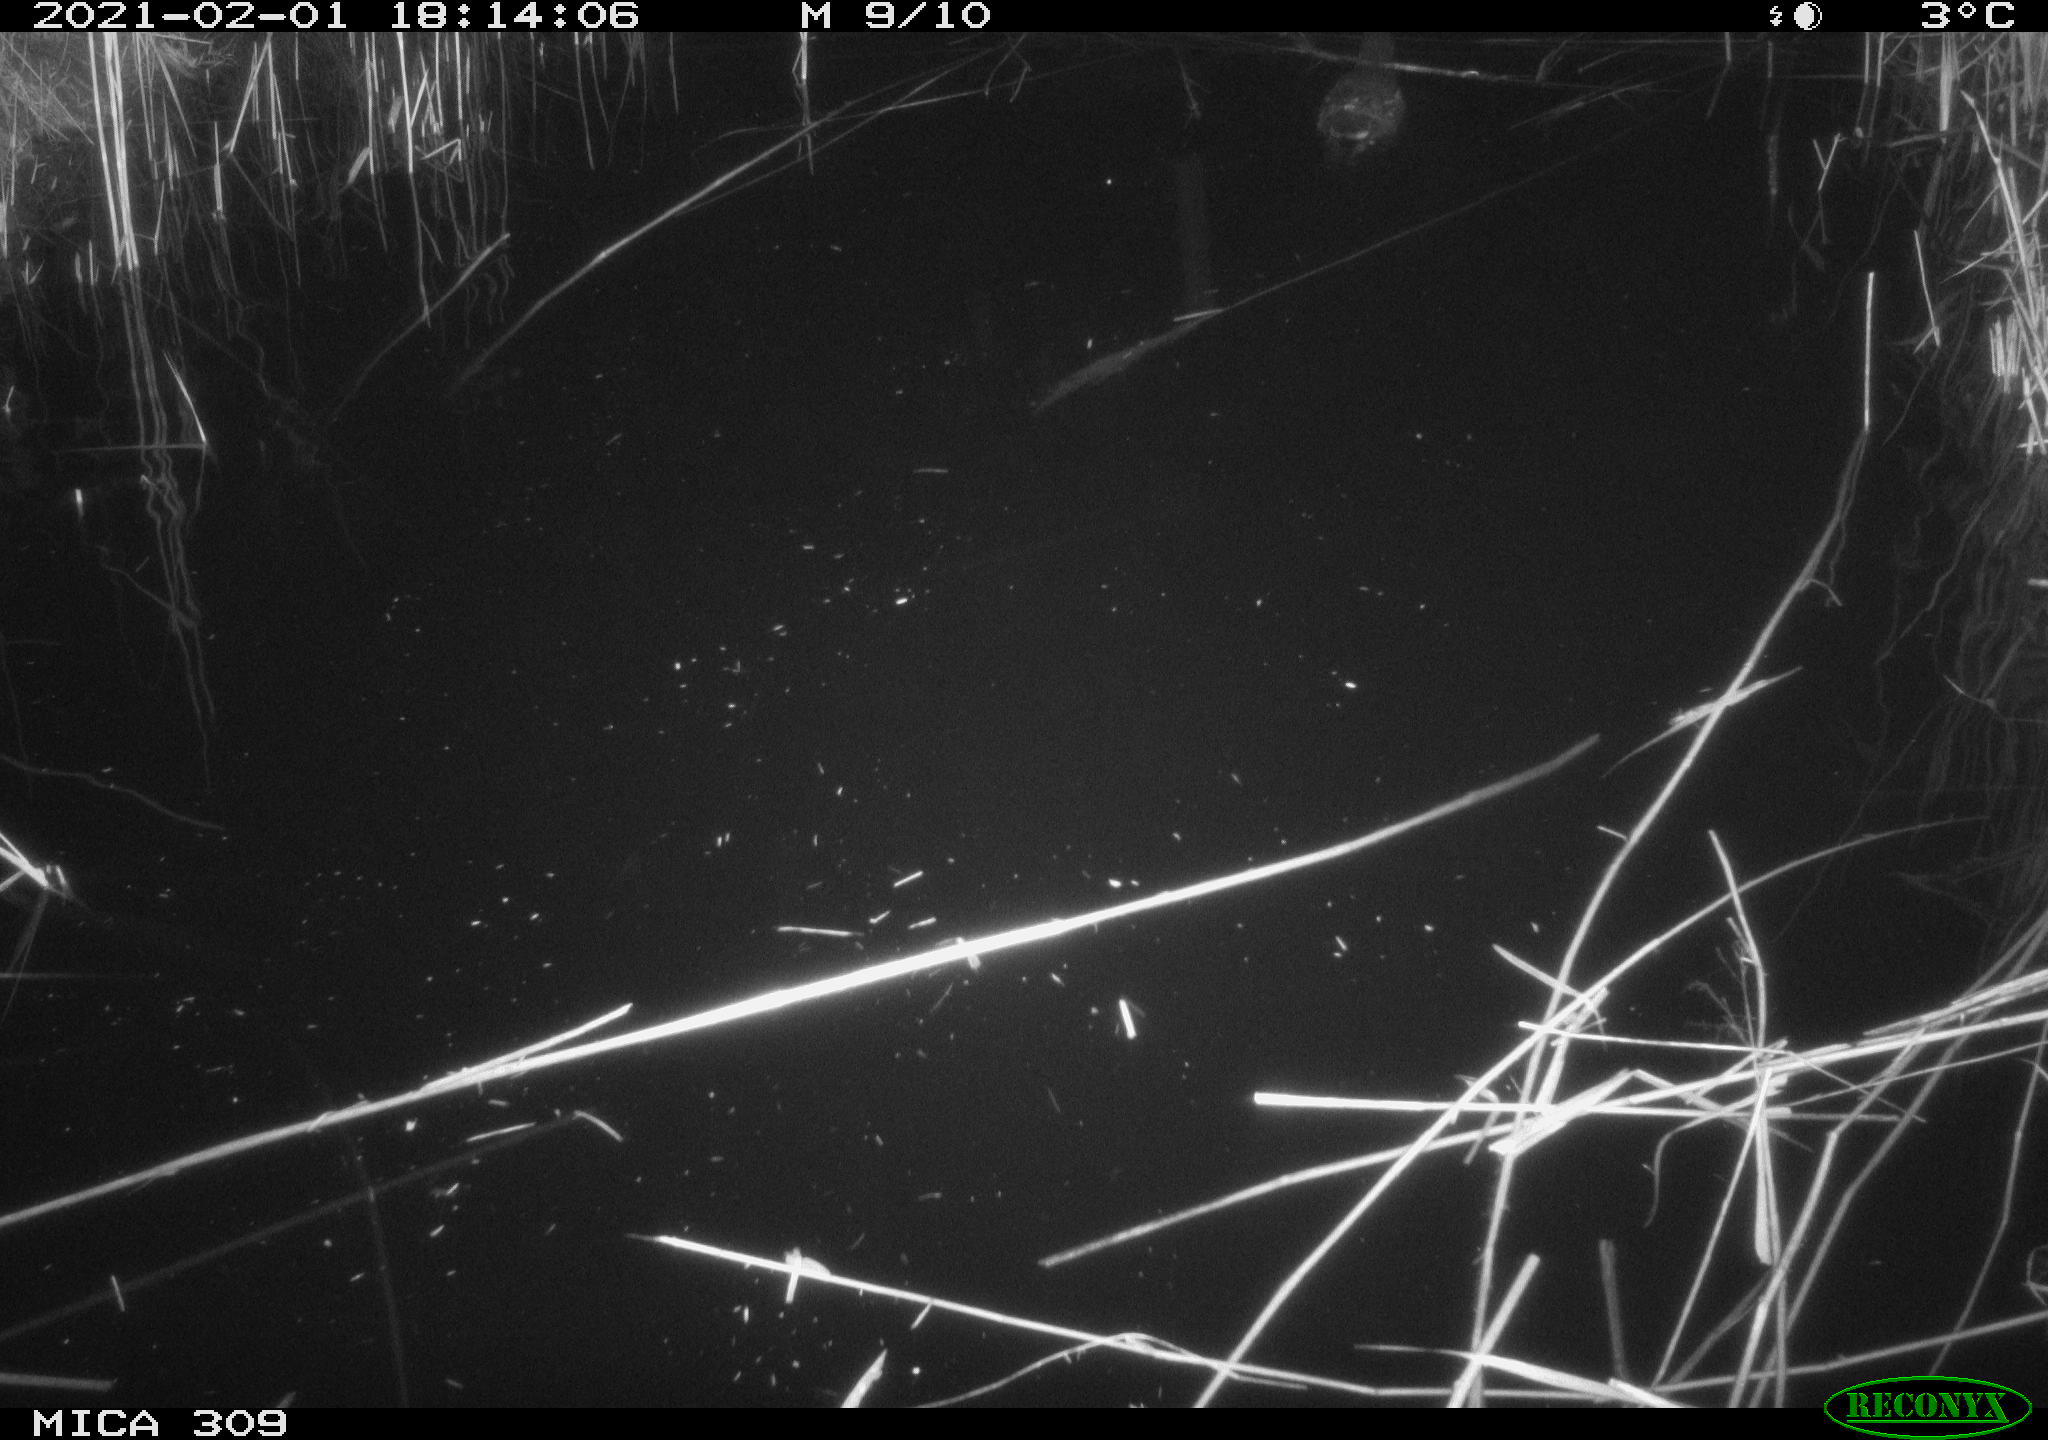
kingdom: Animalia
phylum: Chordata
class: Aves
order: Gruiformes
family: Rallidae
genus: Gallinula
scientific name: Gallinula chloropus
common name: Common moorhen
